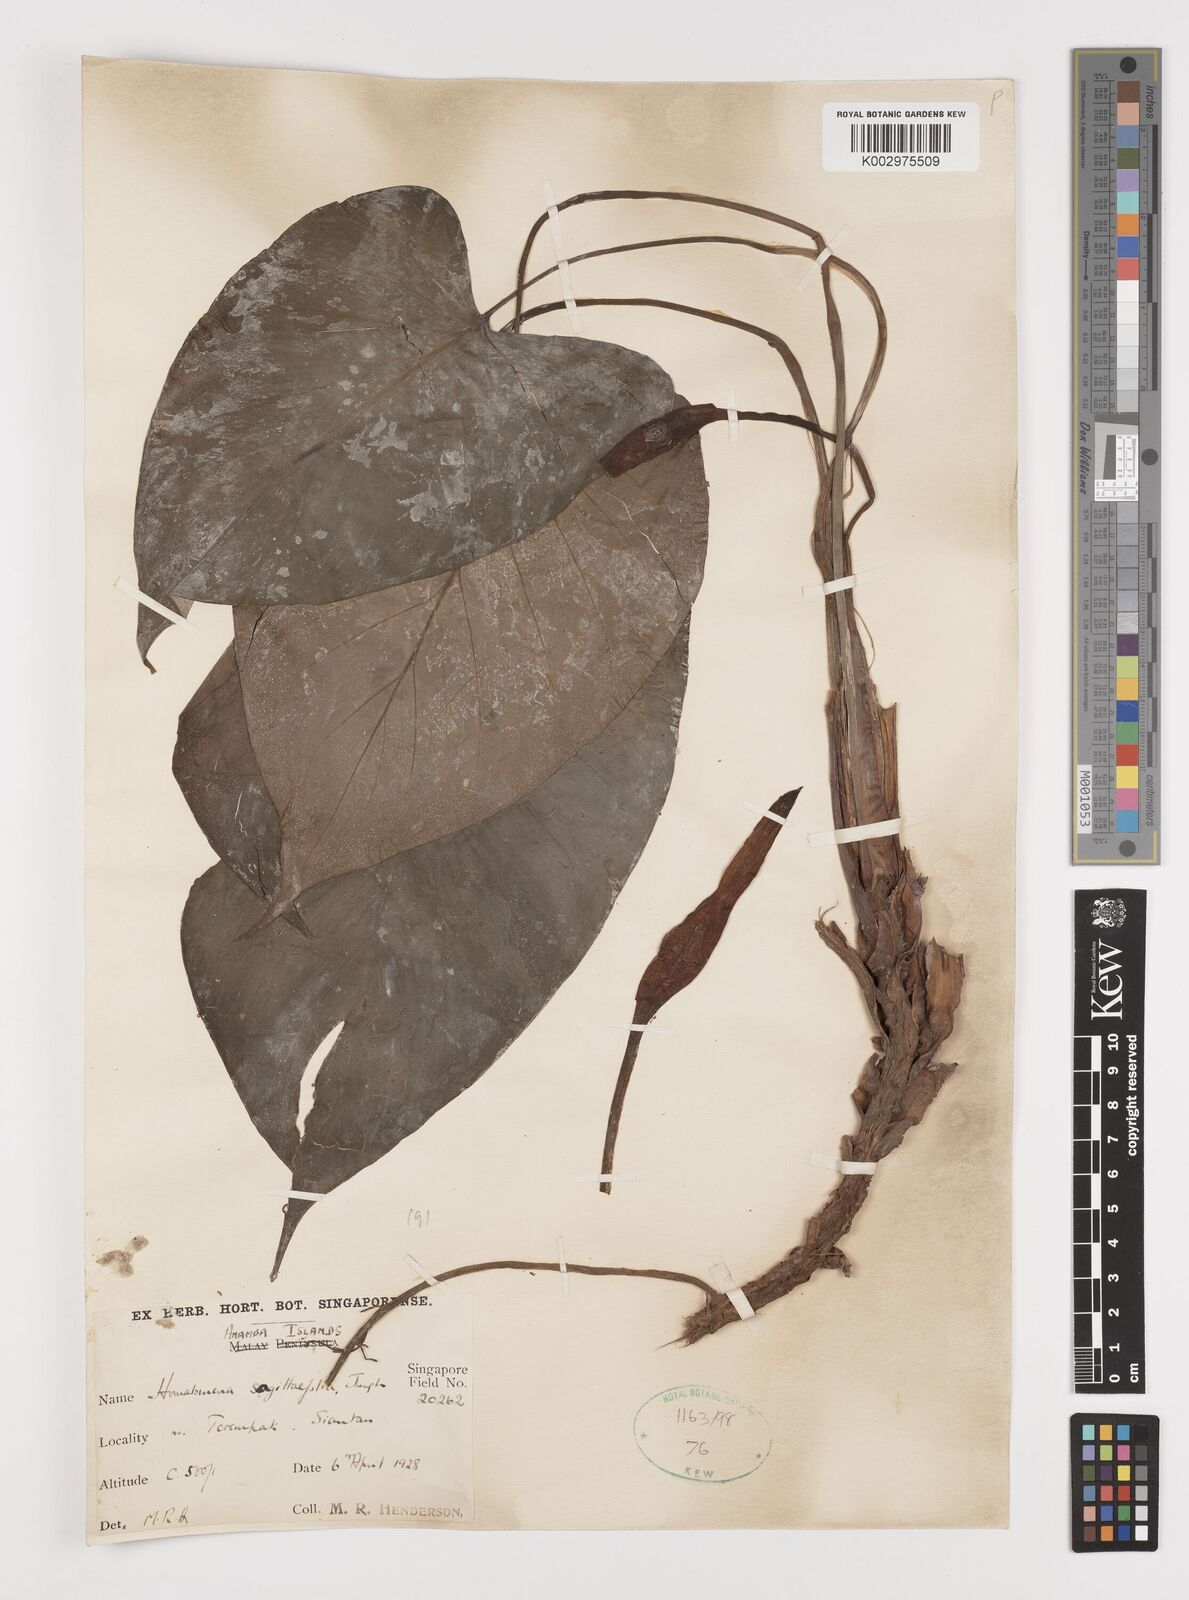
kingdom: Plantae
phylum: Tracheophyta
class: Liliopsida
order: Alismatales
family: Araceae
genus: Homalomena
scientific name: Homalomena rostrata
